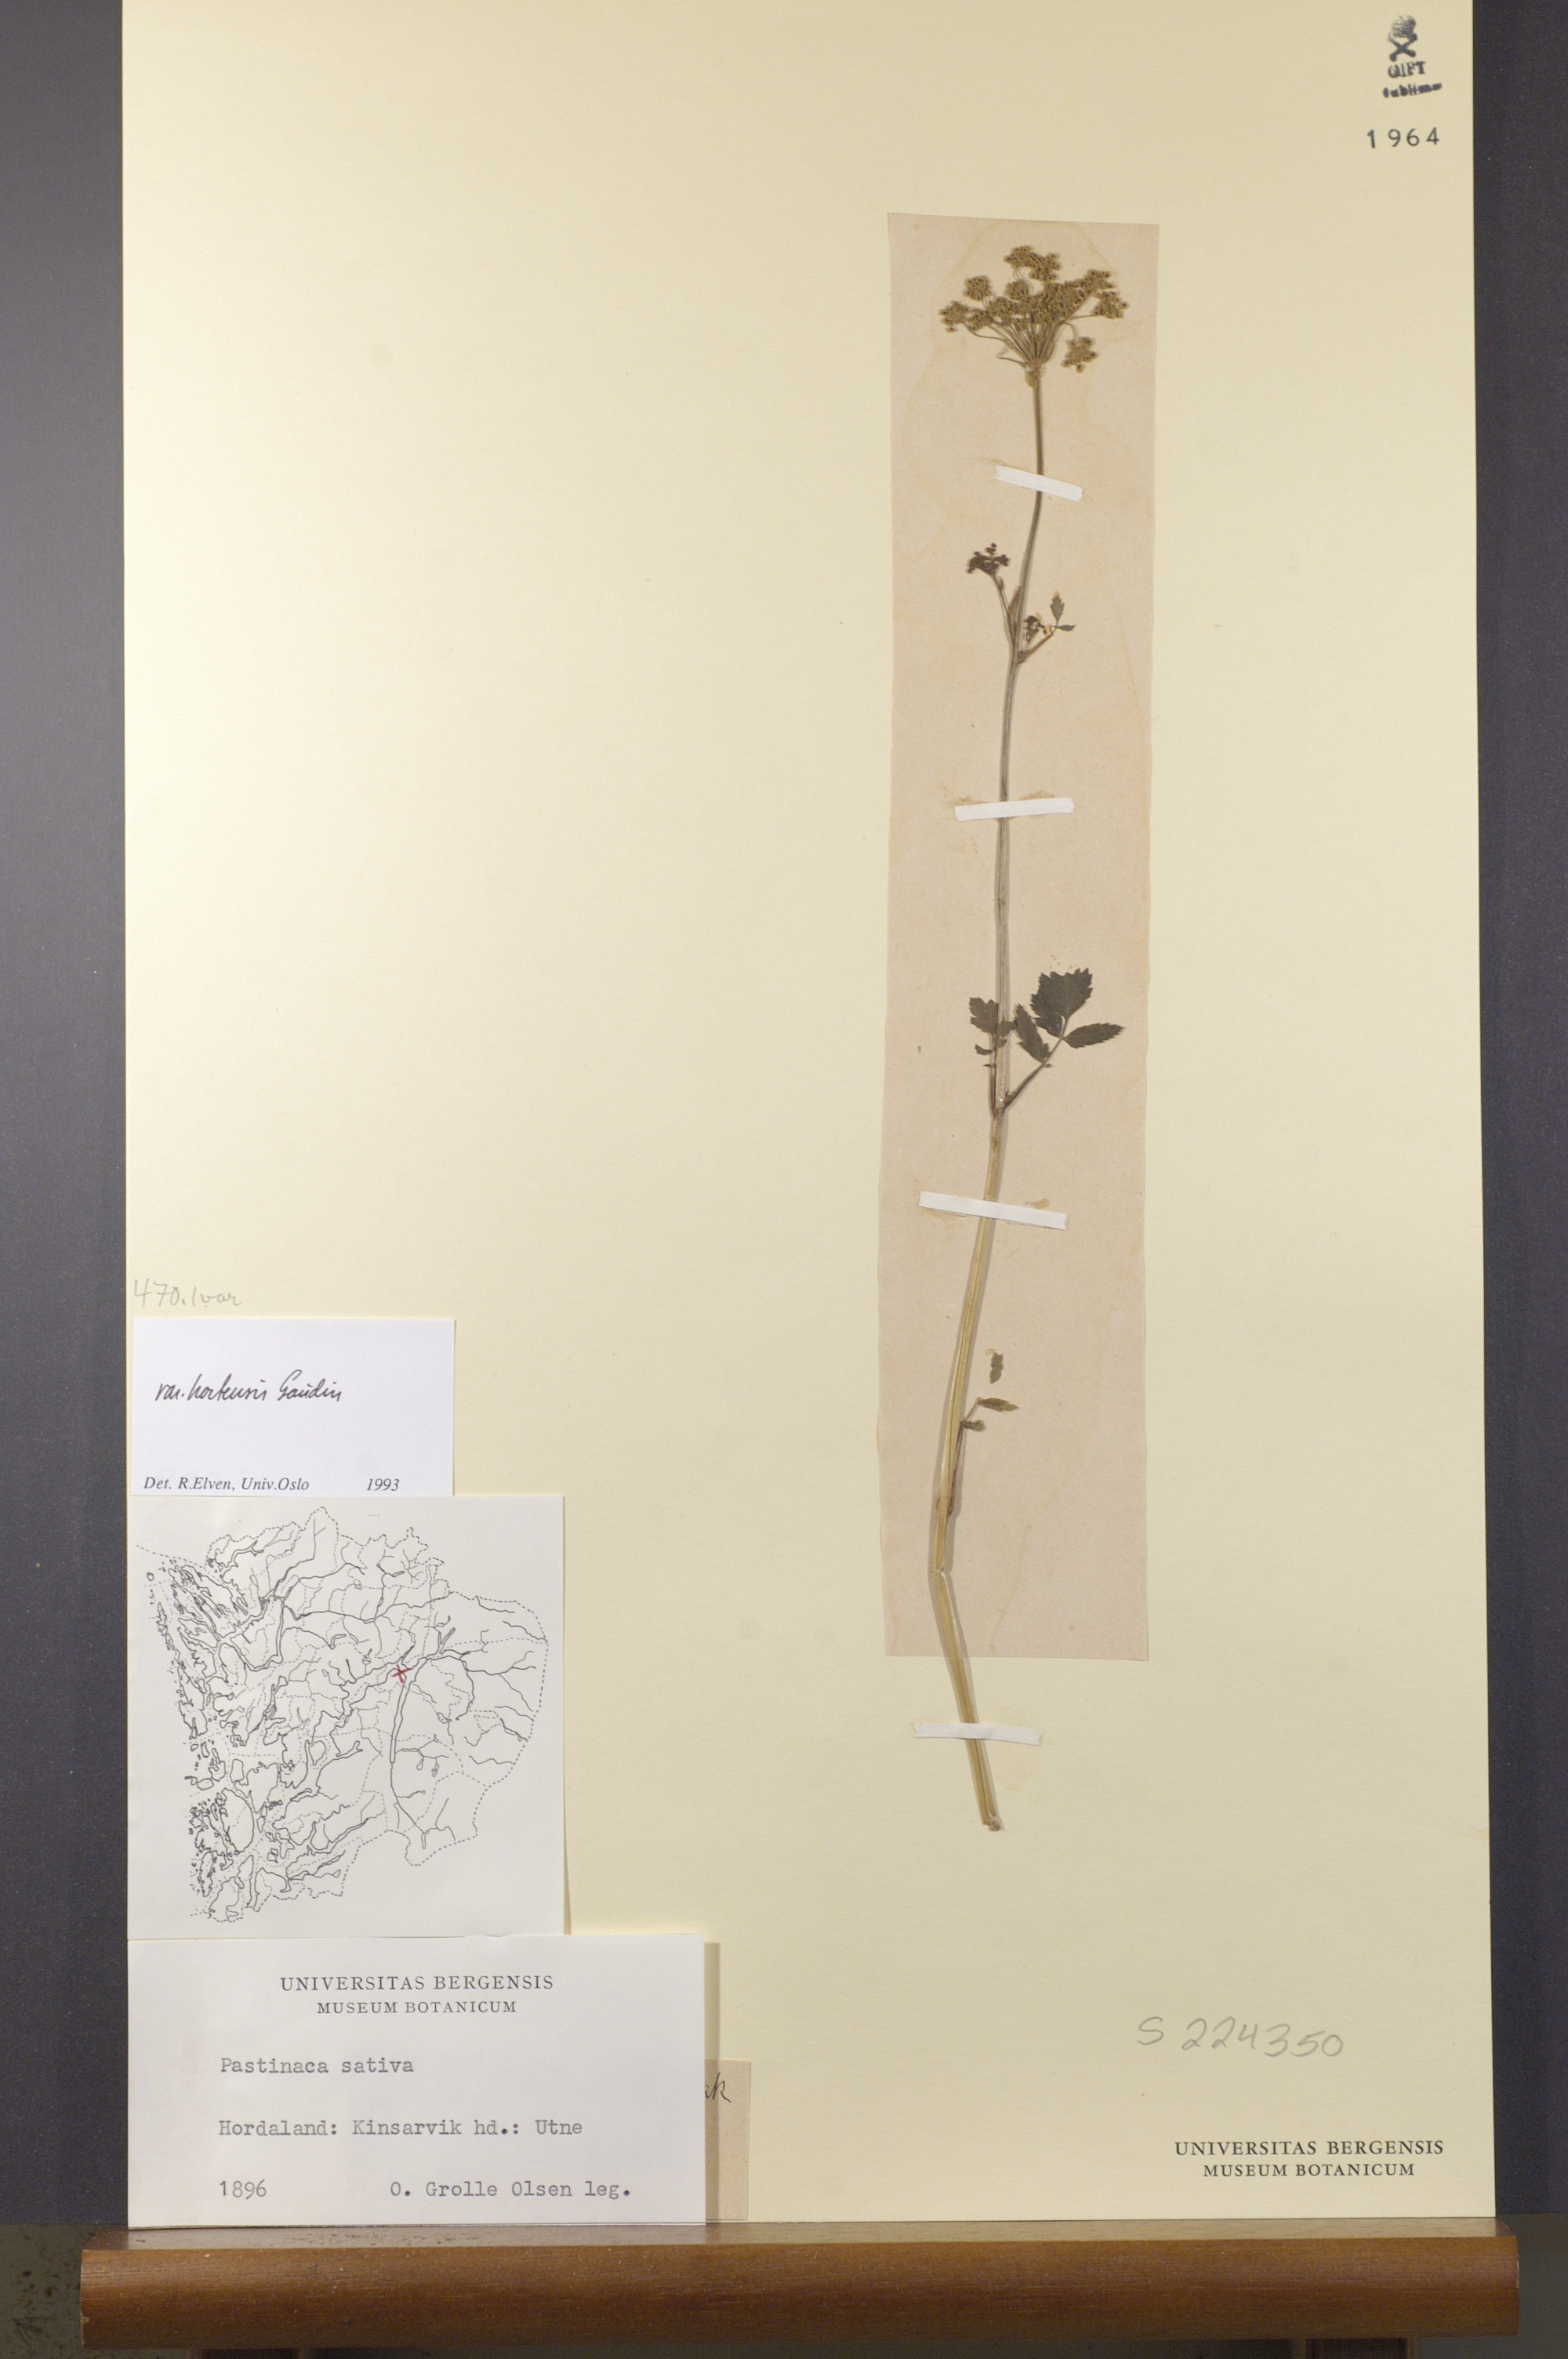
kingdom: Plantae
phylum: Tracheophyta
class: Magnoliopsida
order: Apiales
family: Apiaceae
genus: Pastinaca
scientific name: Pastinaca sativa
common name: Wild parsnip
